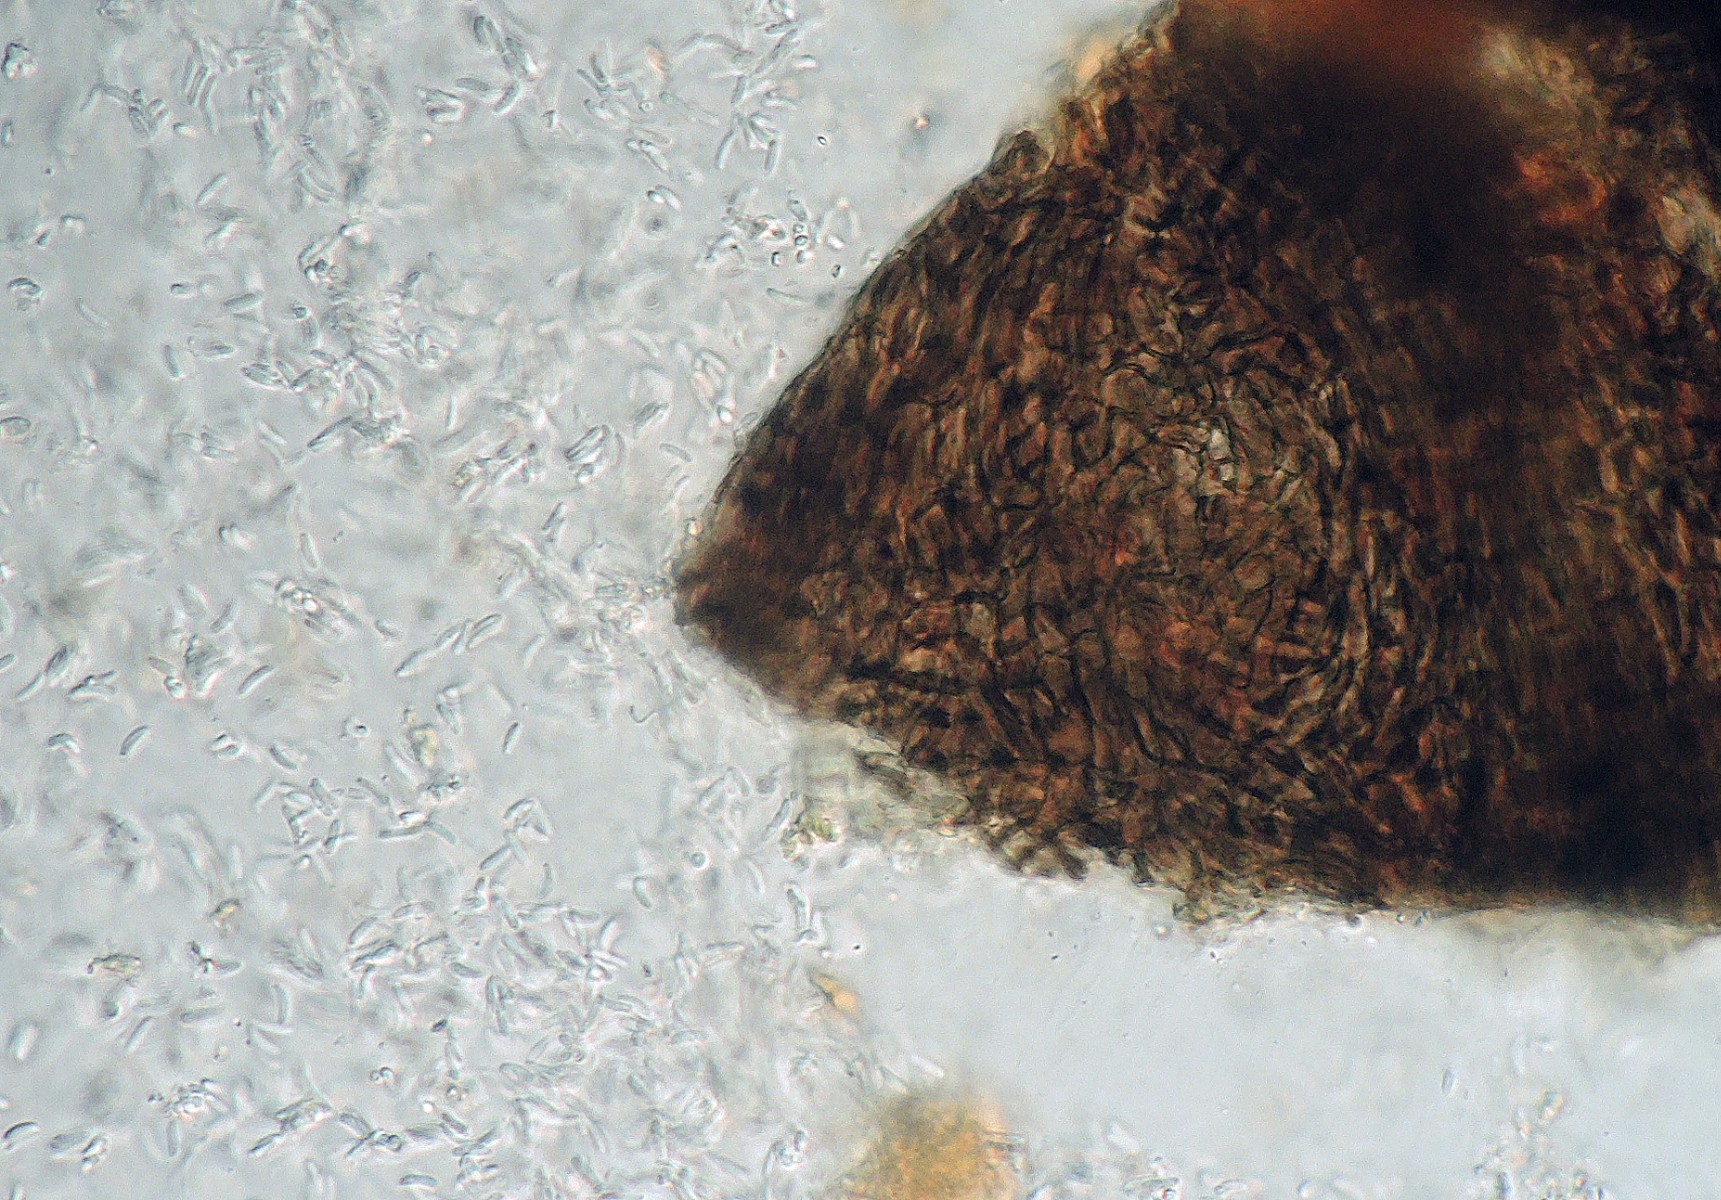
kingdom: Fungi
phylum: Ascomycota
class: Sordariomycetes
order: Diaporthales
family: Valsaceae
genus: Cytospora
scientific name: Cytospora pinastri
